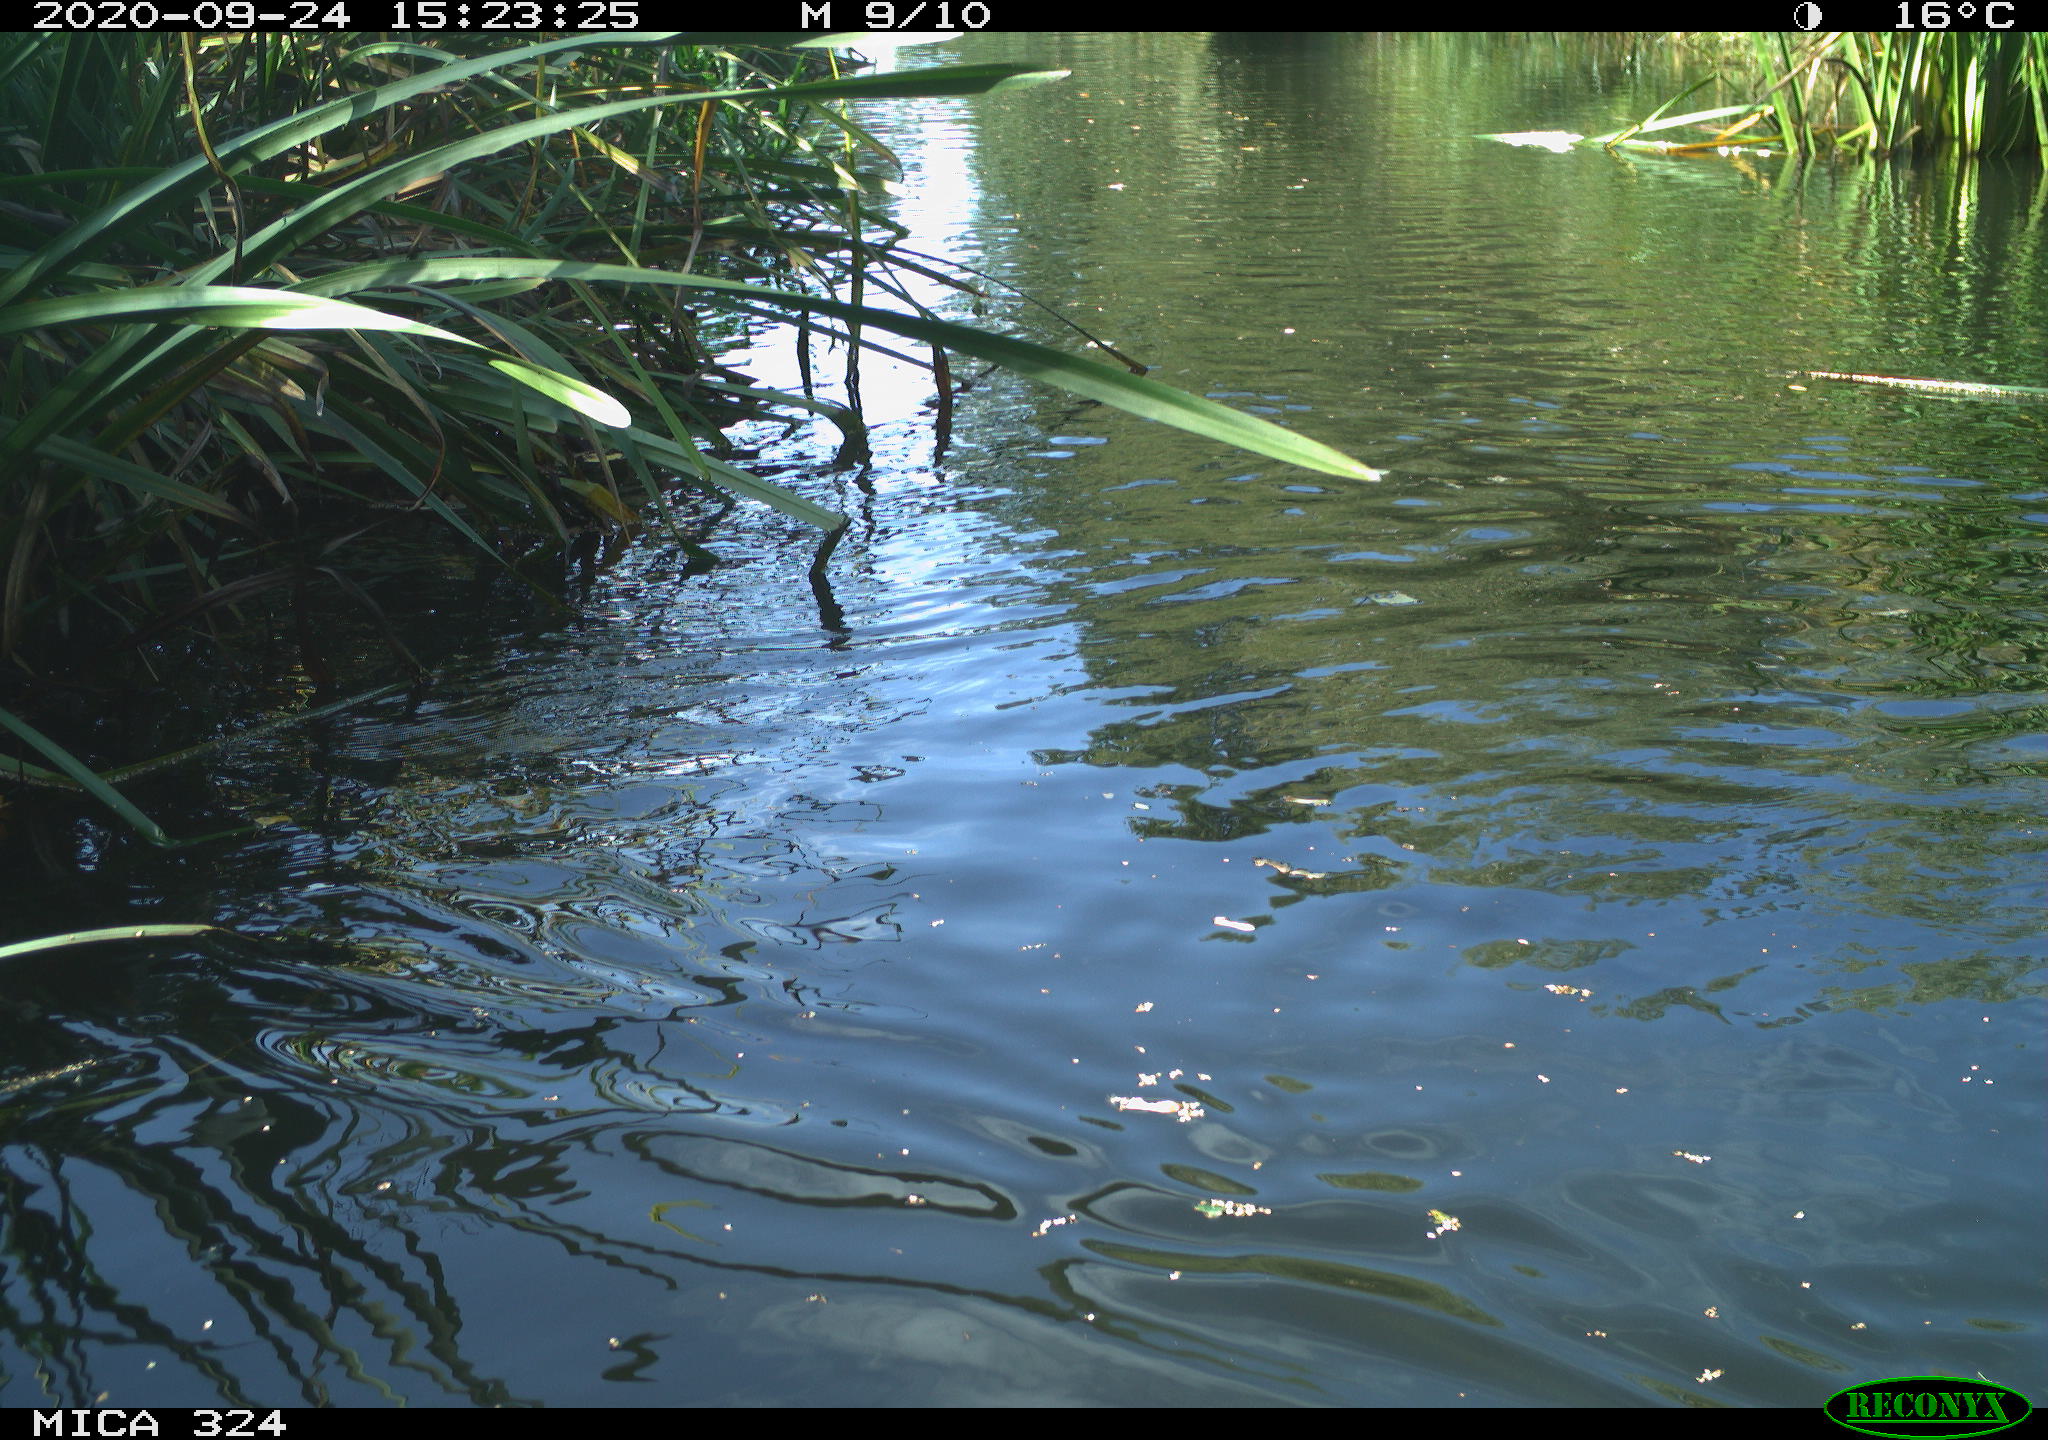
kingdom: Animalia
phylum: Chordata
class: Mammalia
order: Rodentia
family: Cricetidae
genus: Ondatra
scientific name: Ondatra zibethicus
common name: Muskrat
